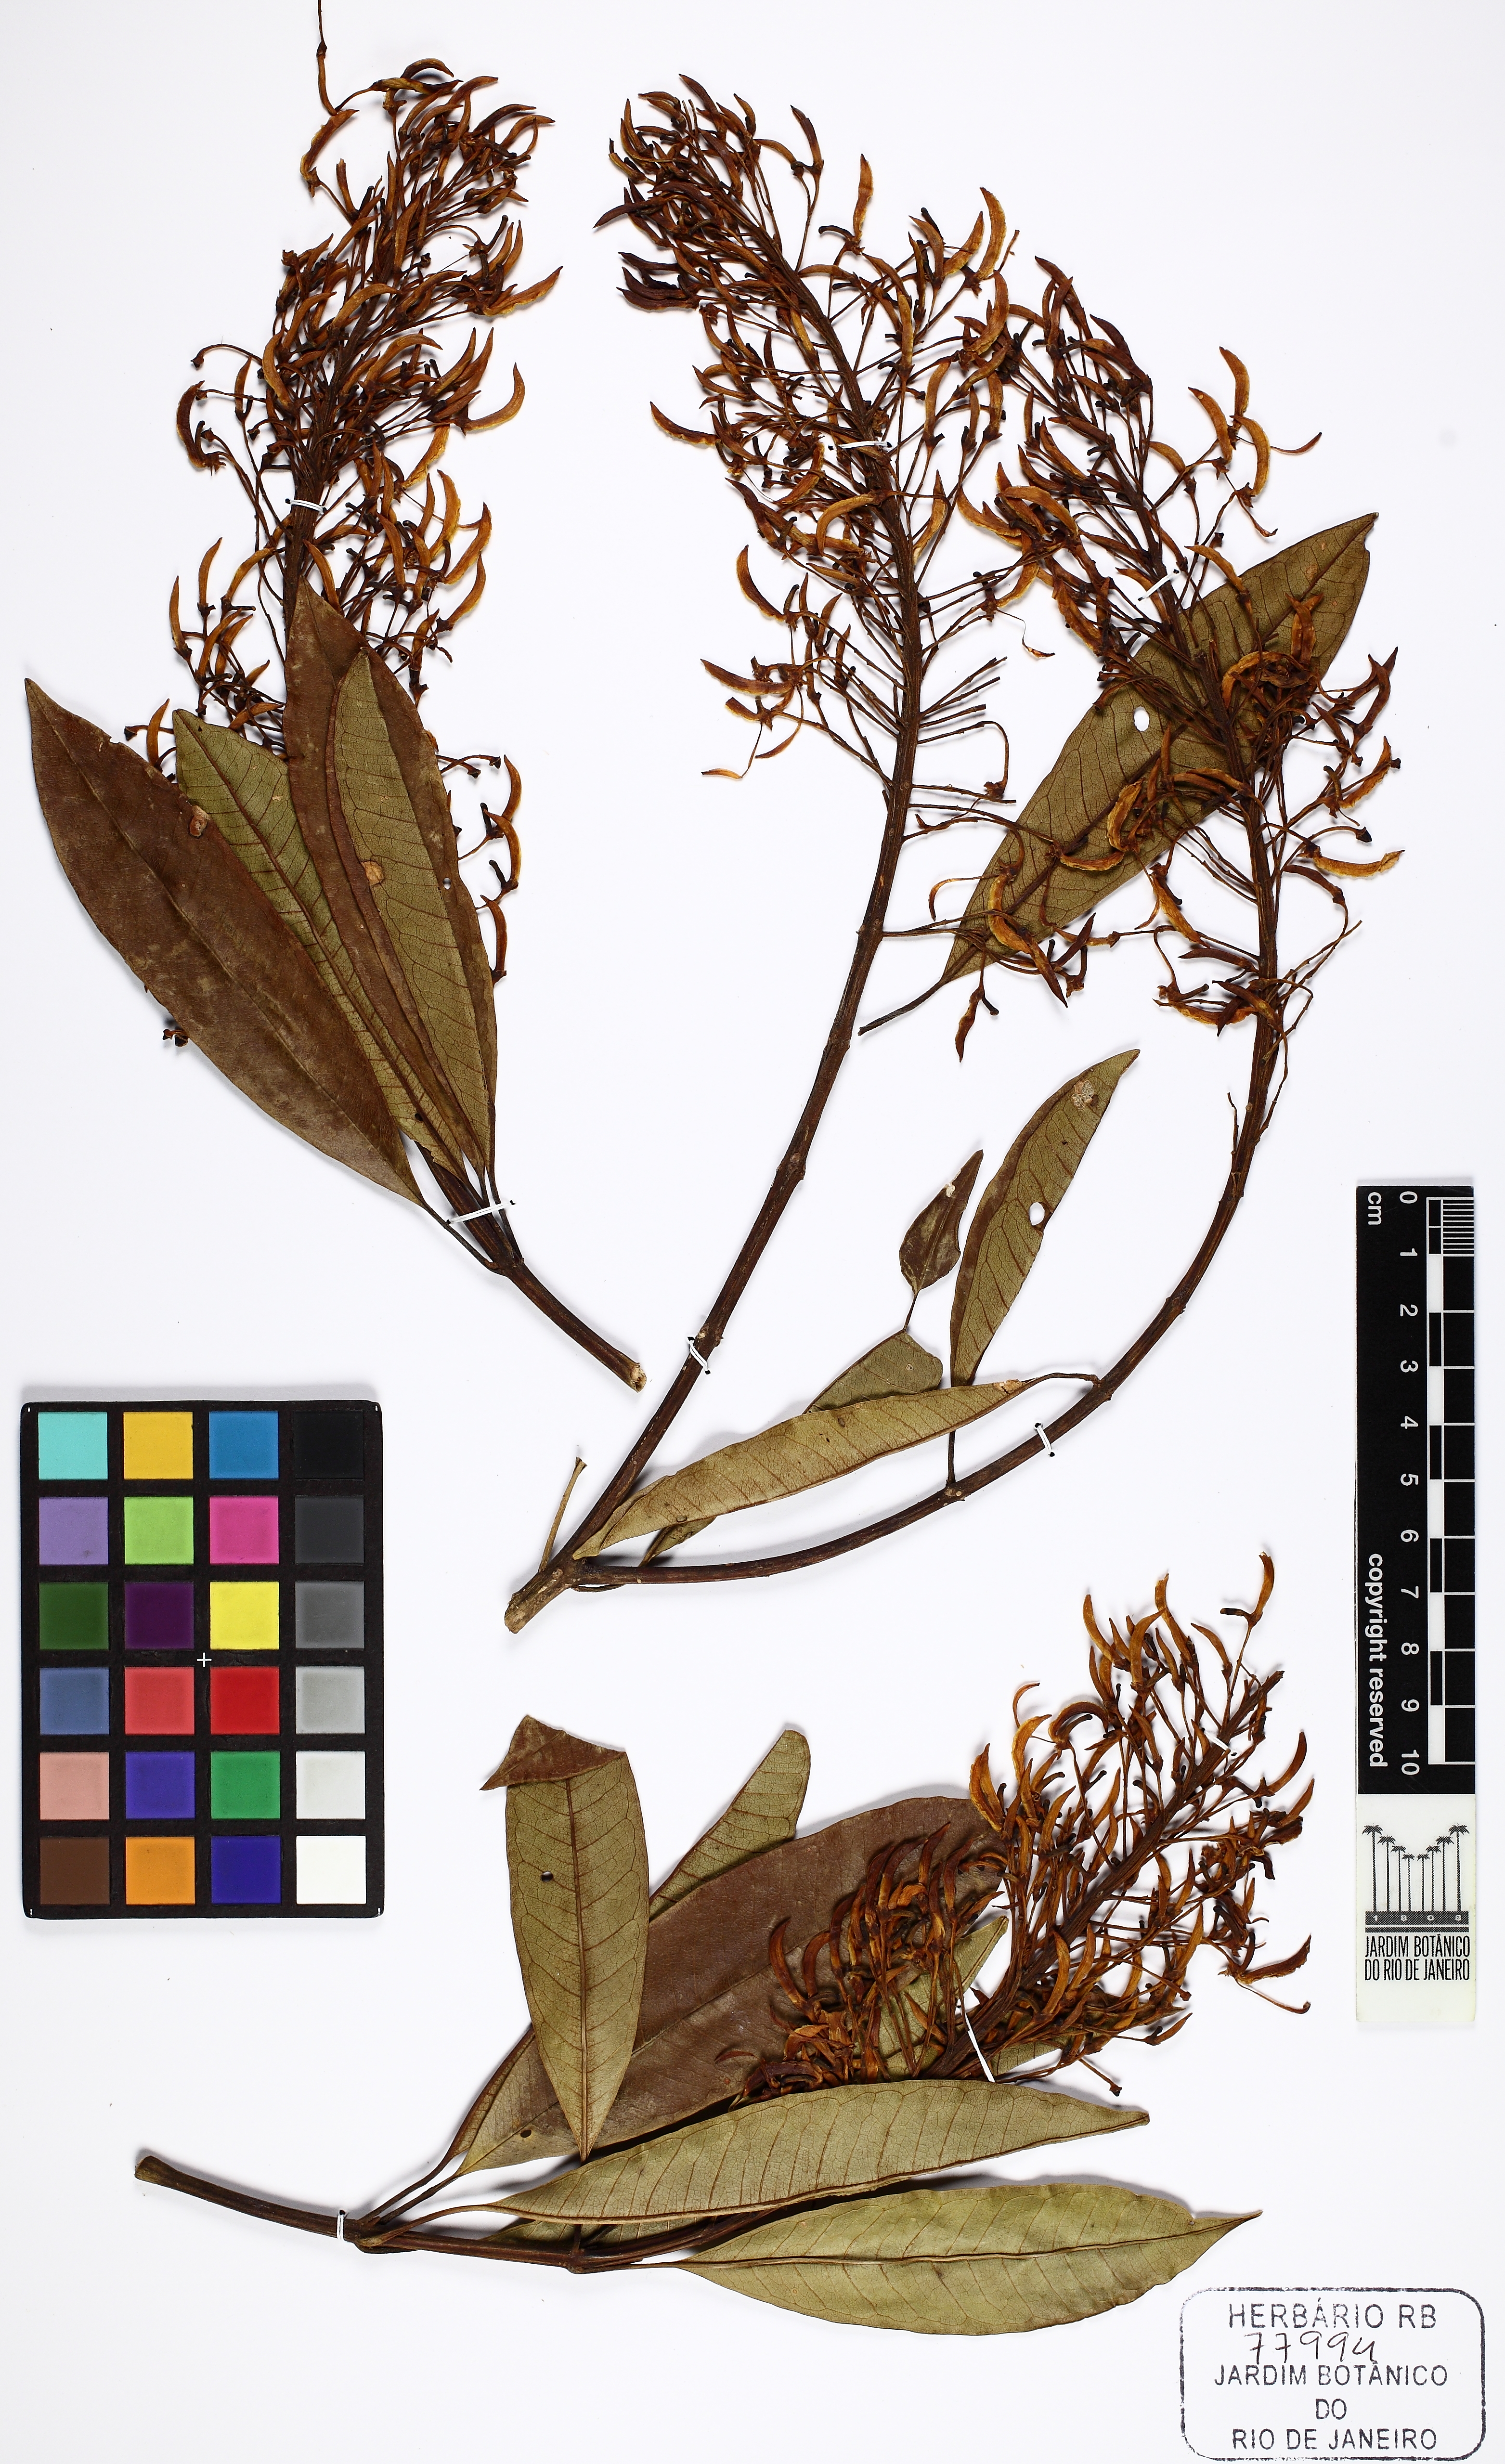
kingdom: Plantae
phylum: Tracheophyta
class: Magnoliopsida
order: Myrtales
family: Vochysiaceae
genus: Vochysia
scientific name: Vochysia schwackeana
